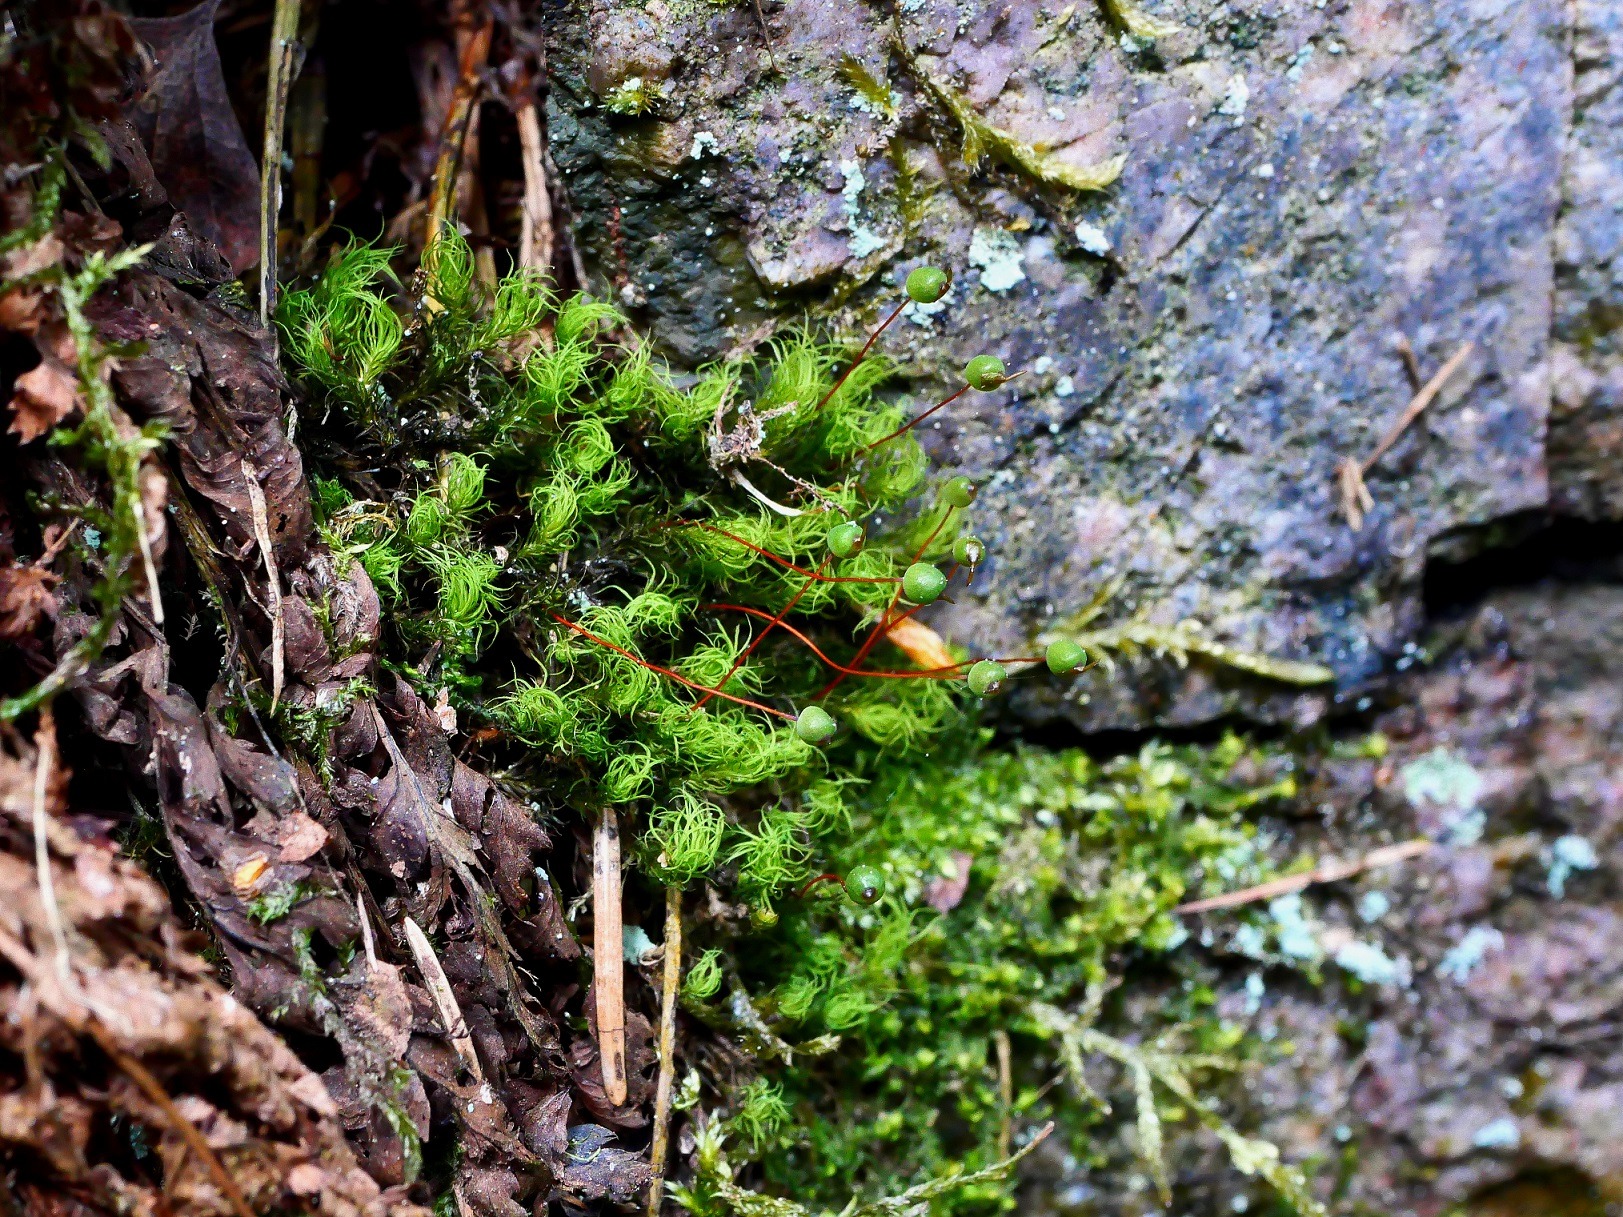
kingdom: Plantae
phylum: Bryophyta
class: Bryopsida
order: Bartramiales
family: Bartramiaceae
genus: Bartramia
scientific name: Bartramia pomiformis
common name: Gulgrøn kuglekapsel
